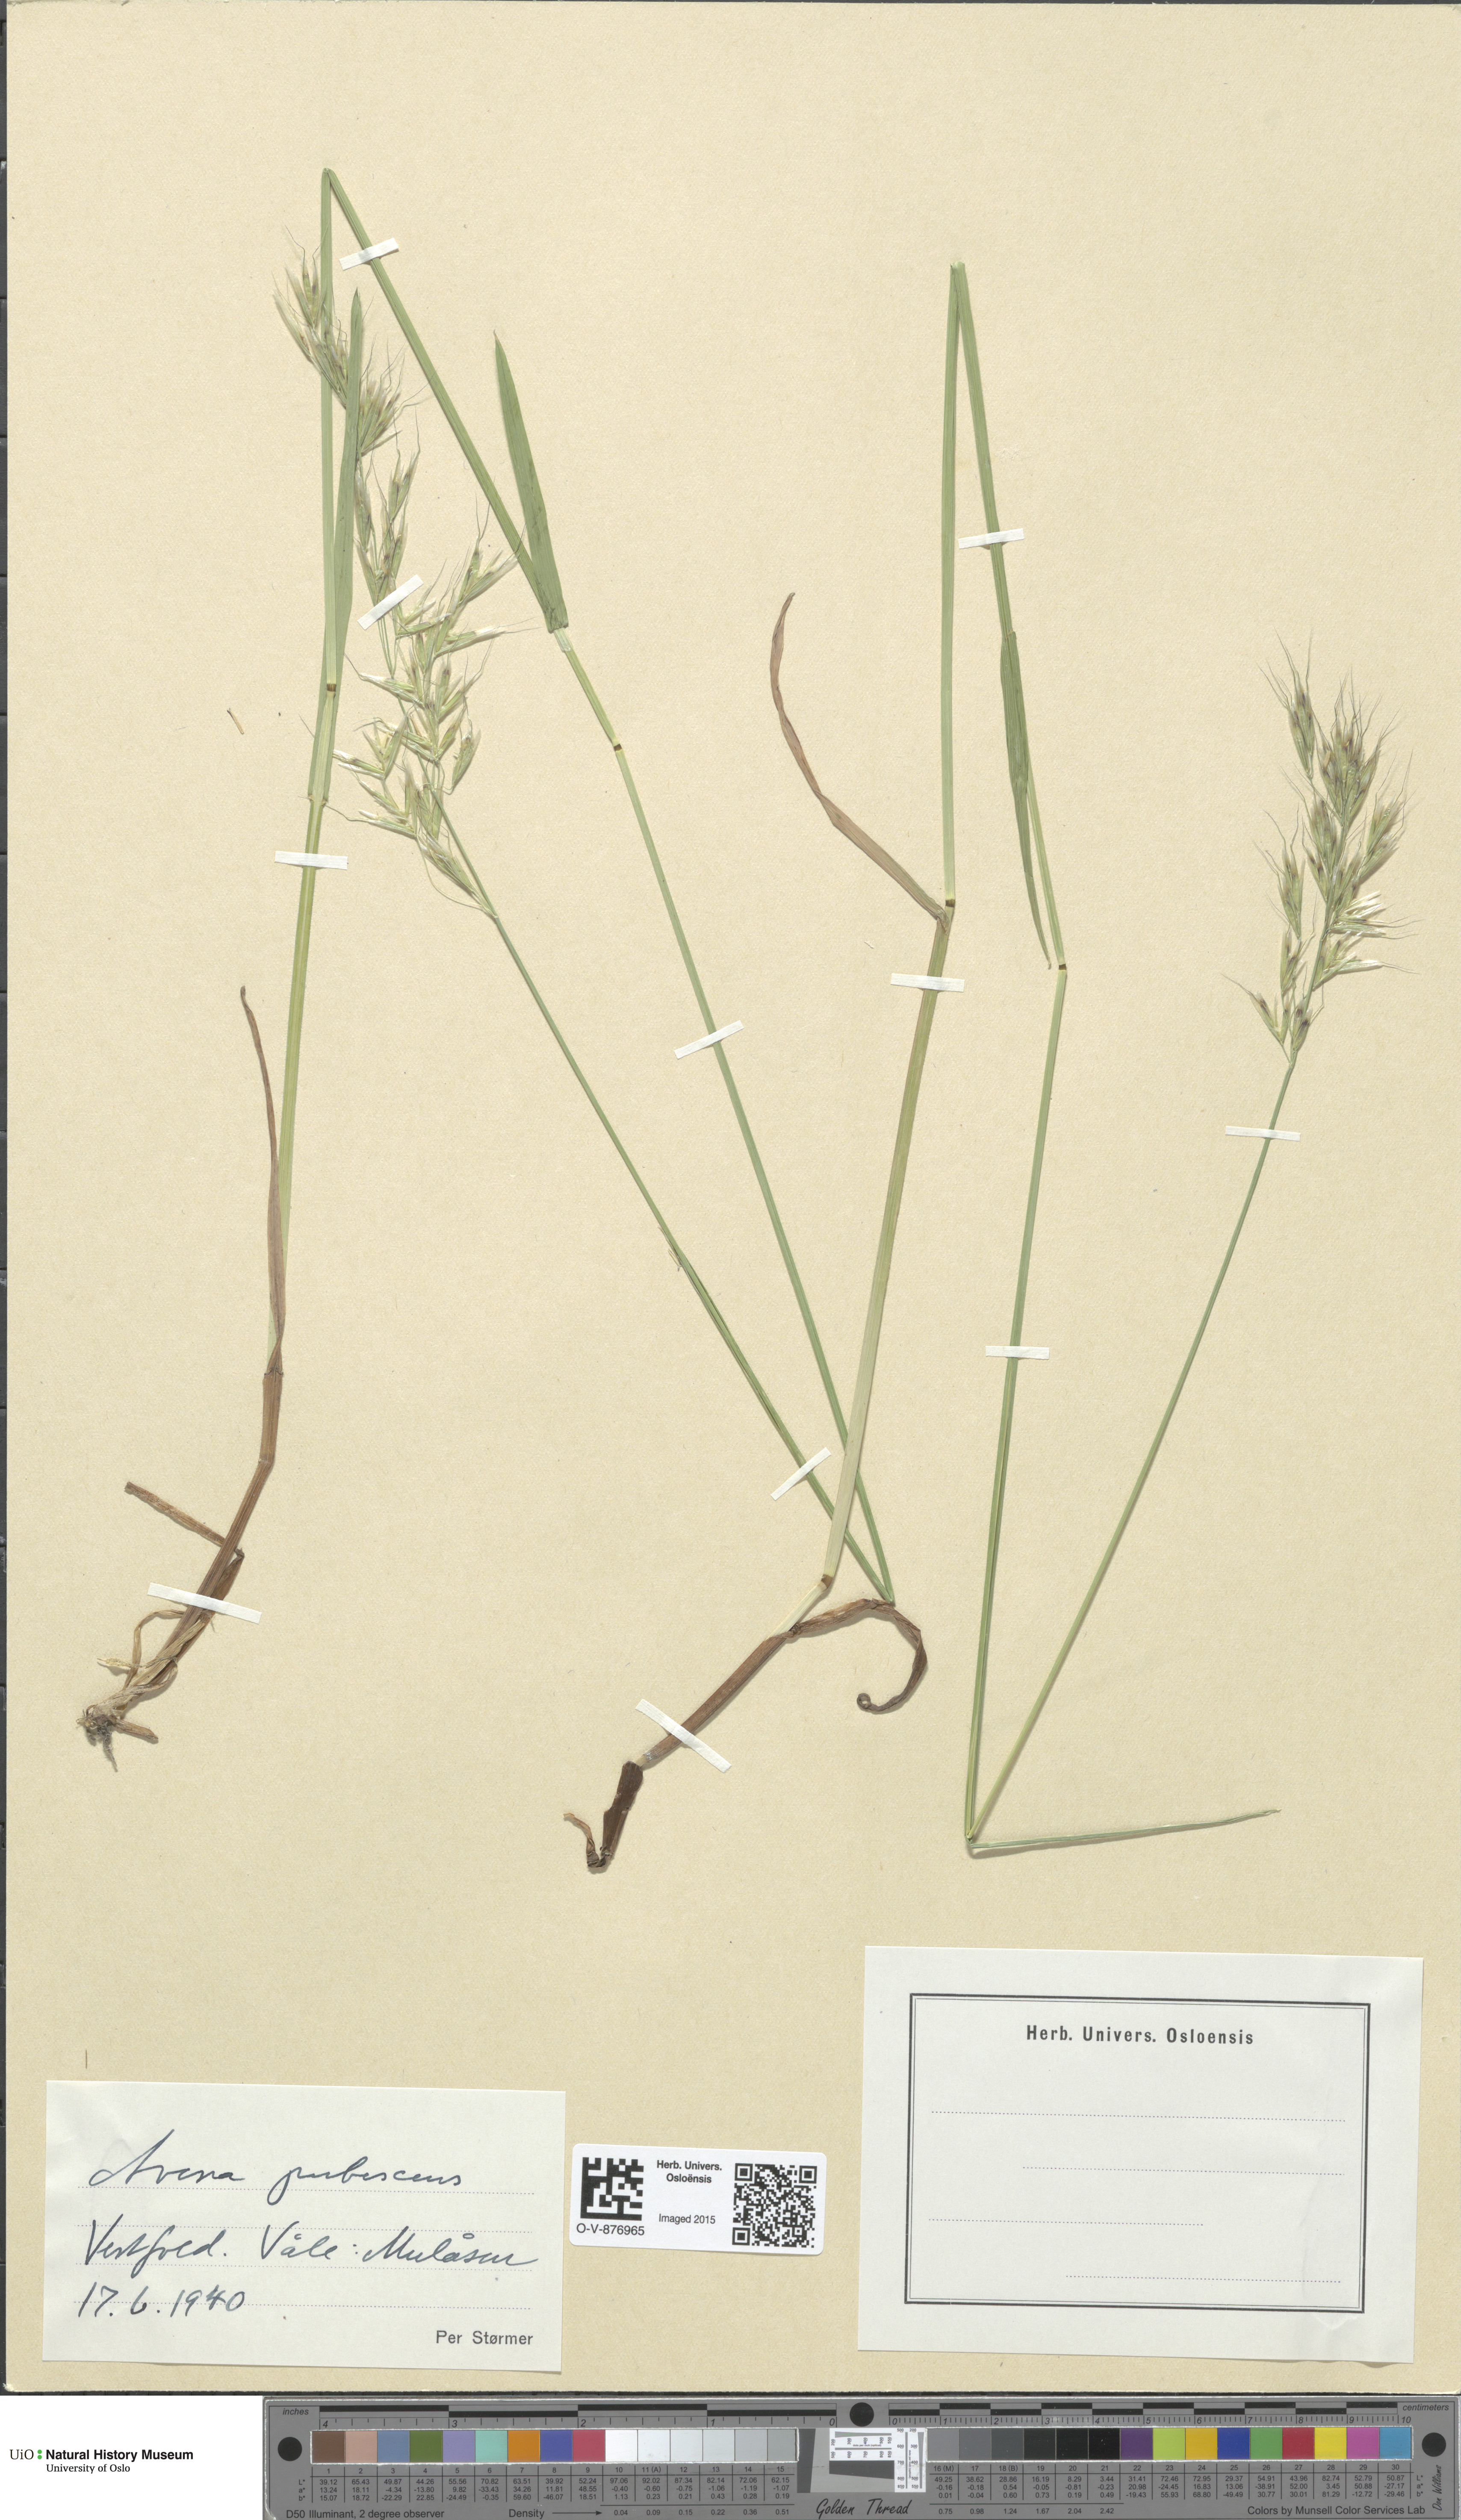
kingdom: Plantae
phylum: Tracheophyta
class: Liliopsida
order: Poales
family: Poaceae
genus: Avenula
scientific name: Avenula pubescens
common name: Downy alpine oatgrass
